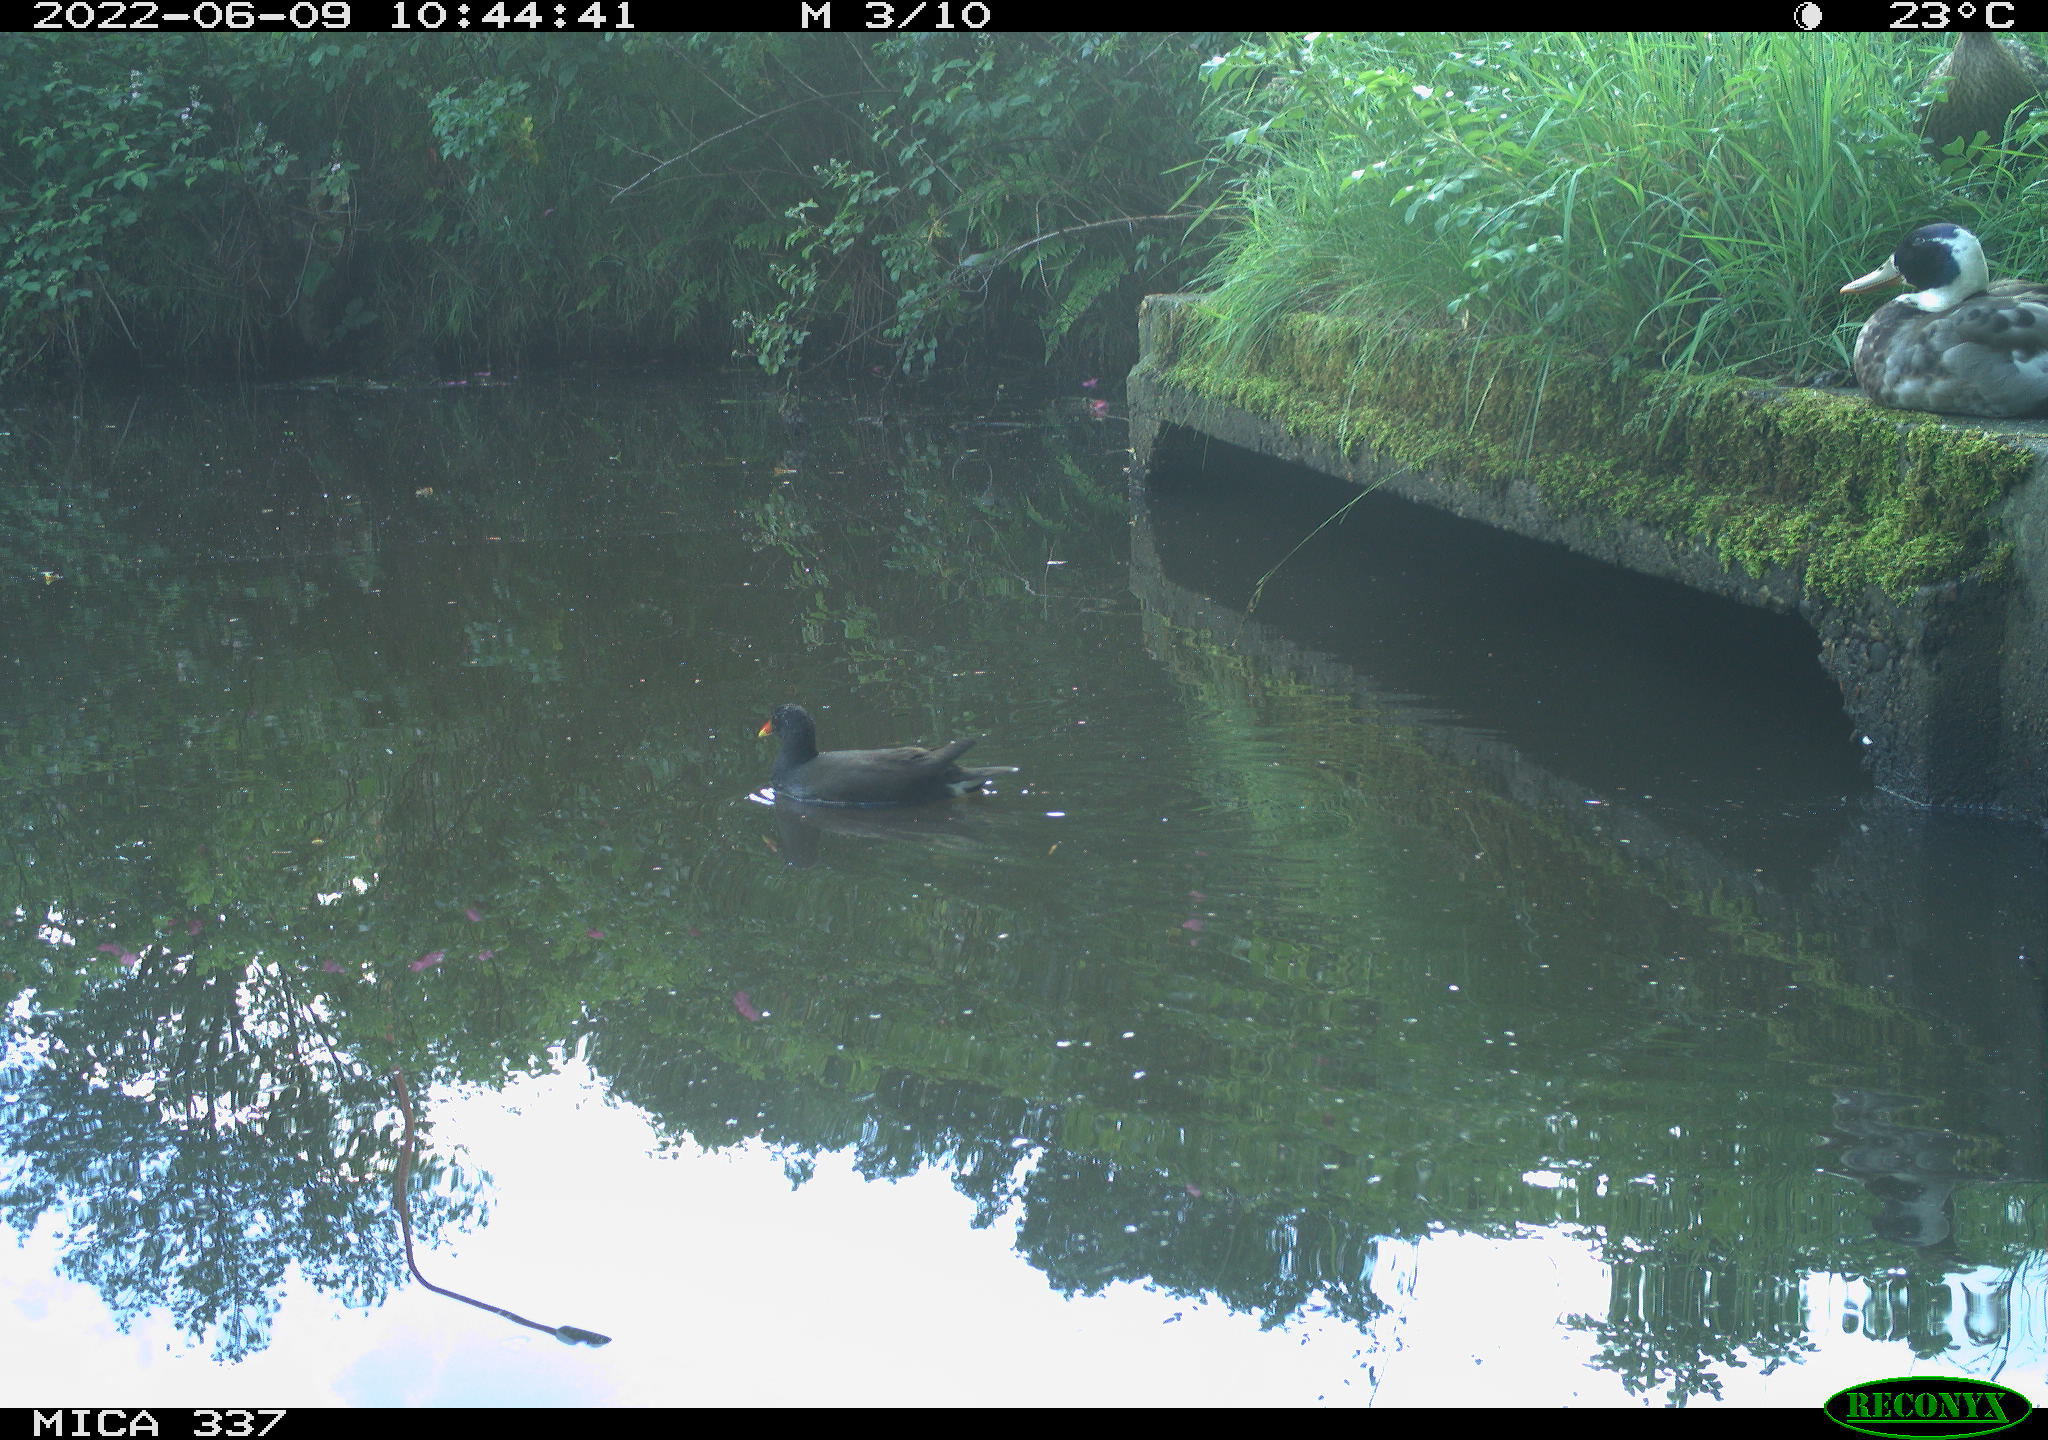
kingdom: Animalia
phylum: Chordata
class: Aves
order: Anseriformes
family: Anatidae
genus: Anas
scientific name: Anas platyrhynchos
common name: Mallard
